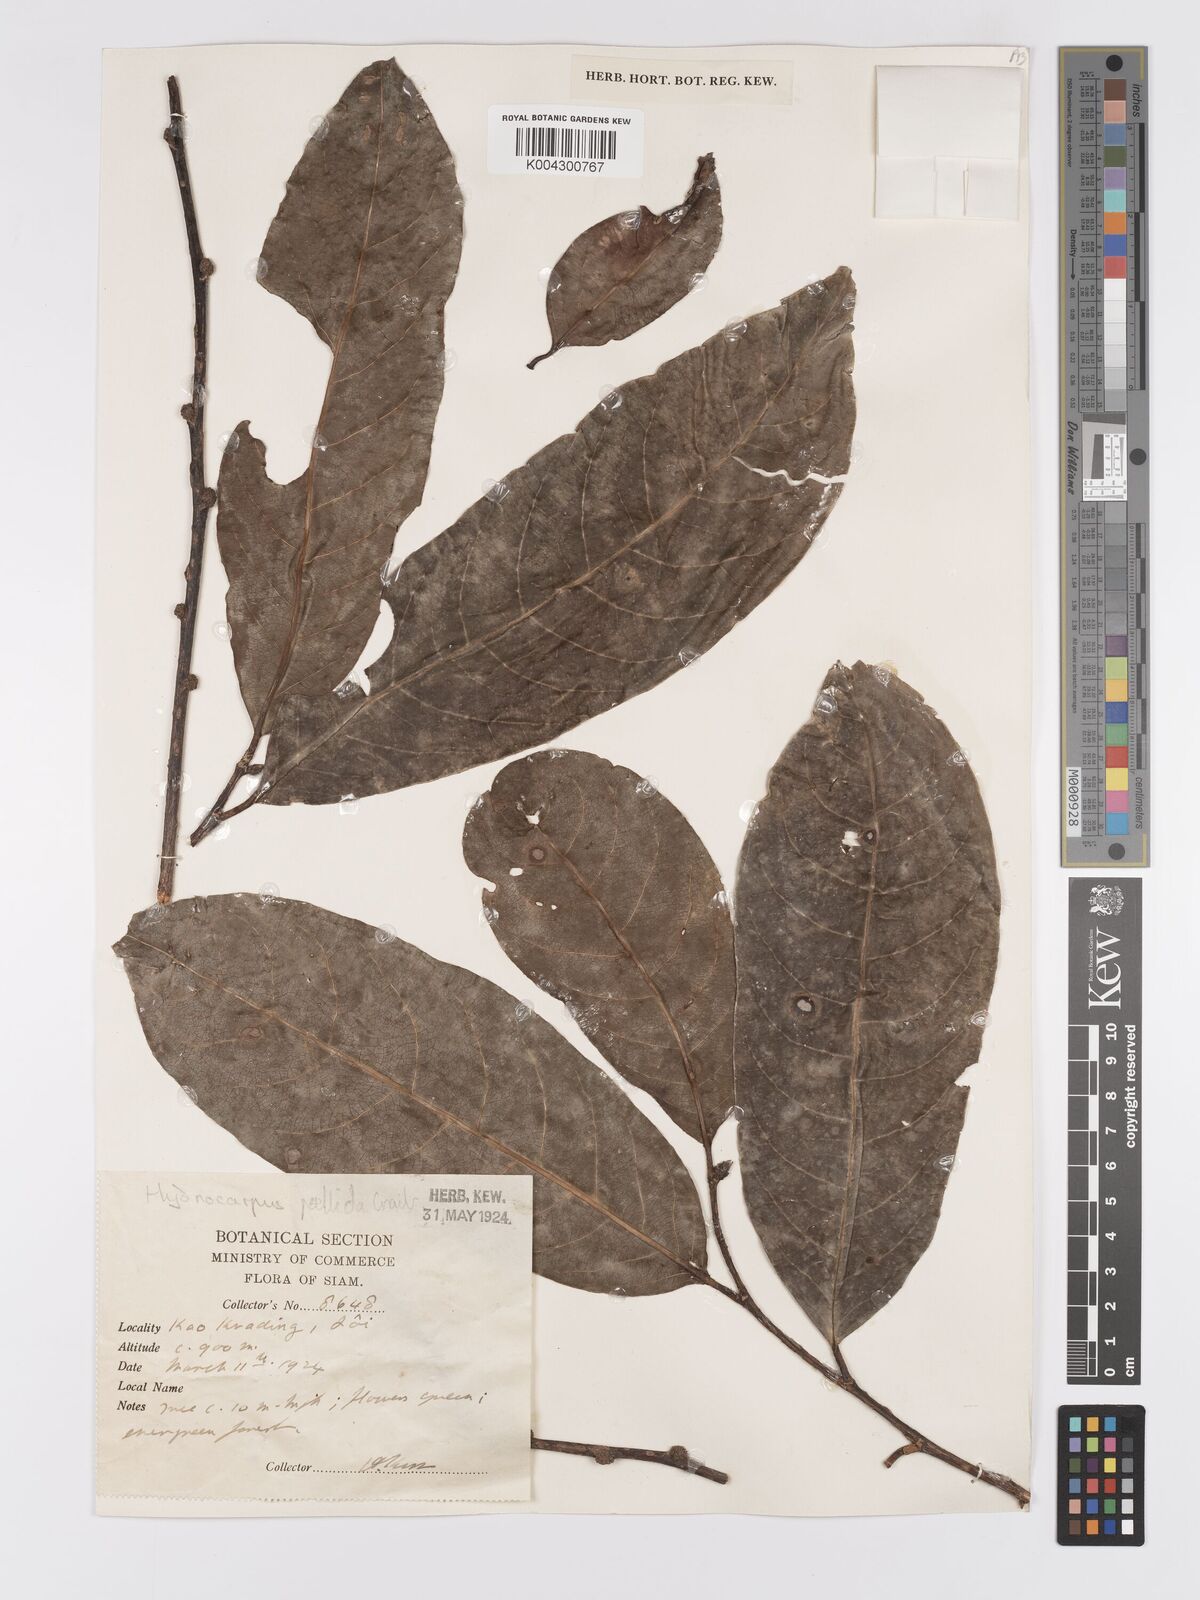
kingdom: Plantae
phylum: Tracheophyta
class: Magnoliopsida
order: Malpighiales
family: Achariaceae
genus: Hydnocarpus
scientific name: Hydnocarpus
